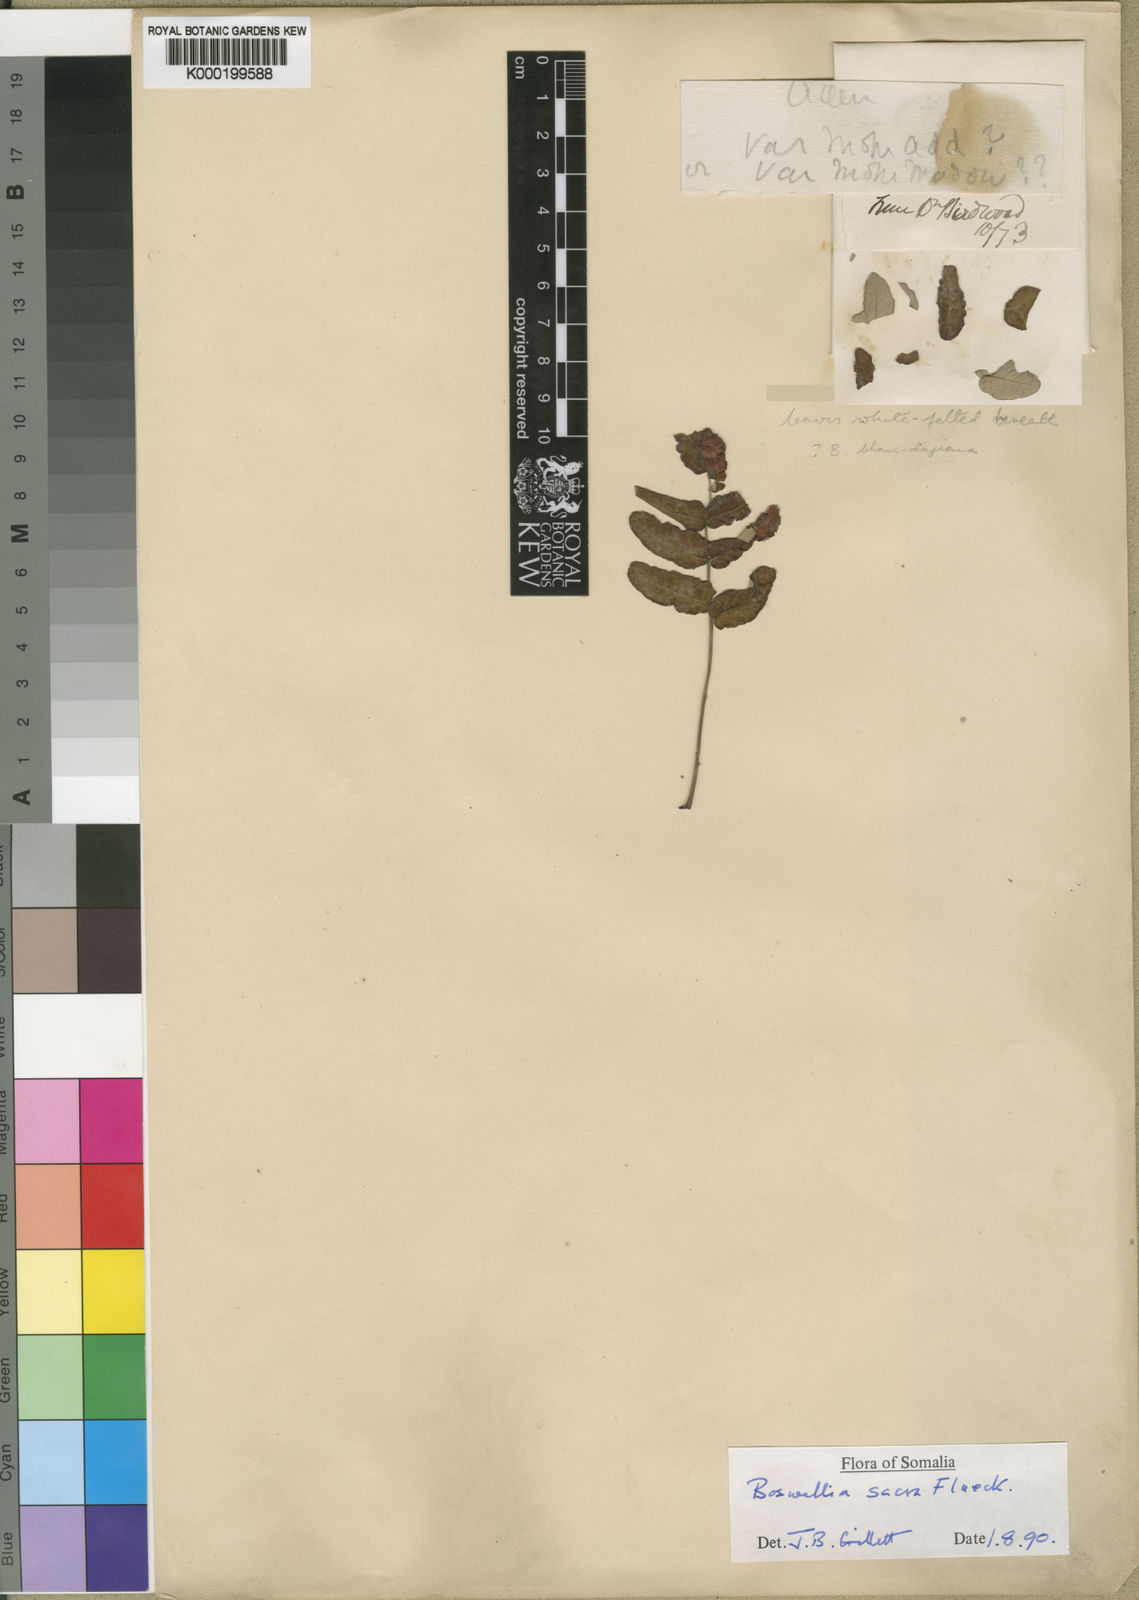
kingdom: Plantae
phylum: Tracheophyta
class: Magnoliopsida
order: Sapindales
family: Burseraceae
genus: Boswellia
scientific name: Boswellia sacra
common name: Olibanum-tree
